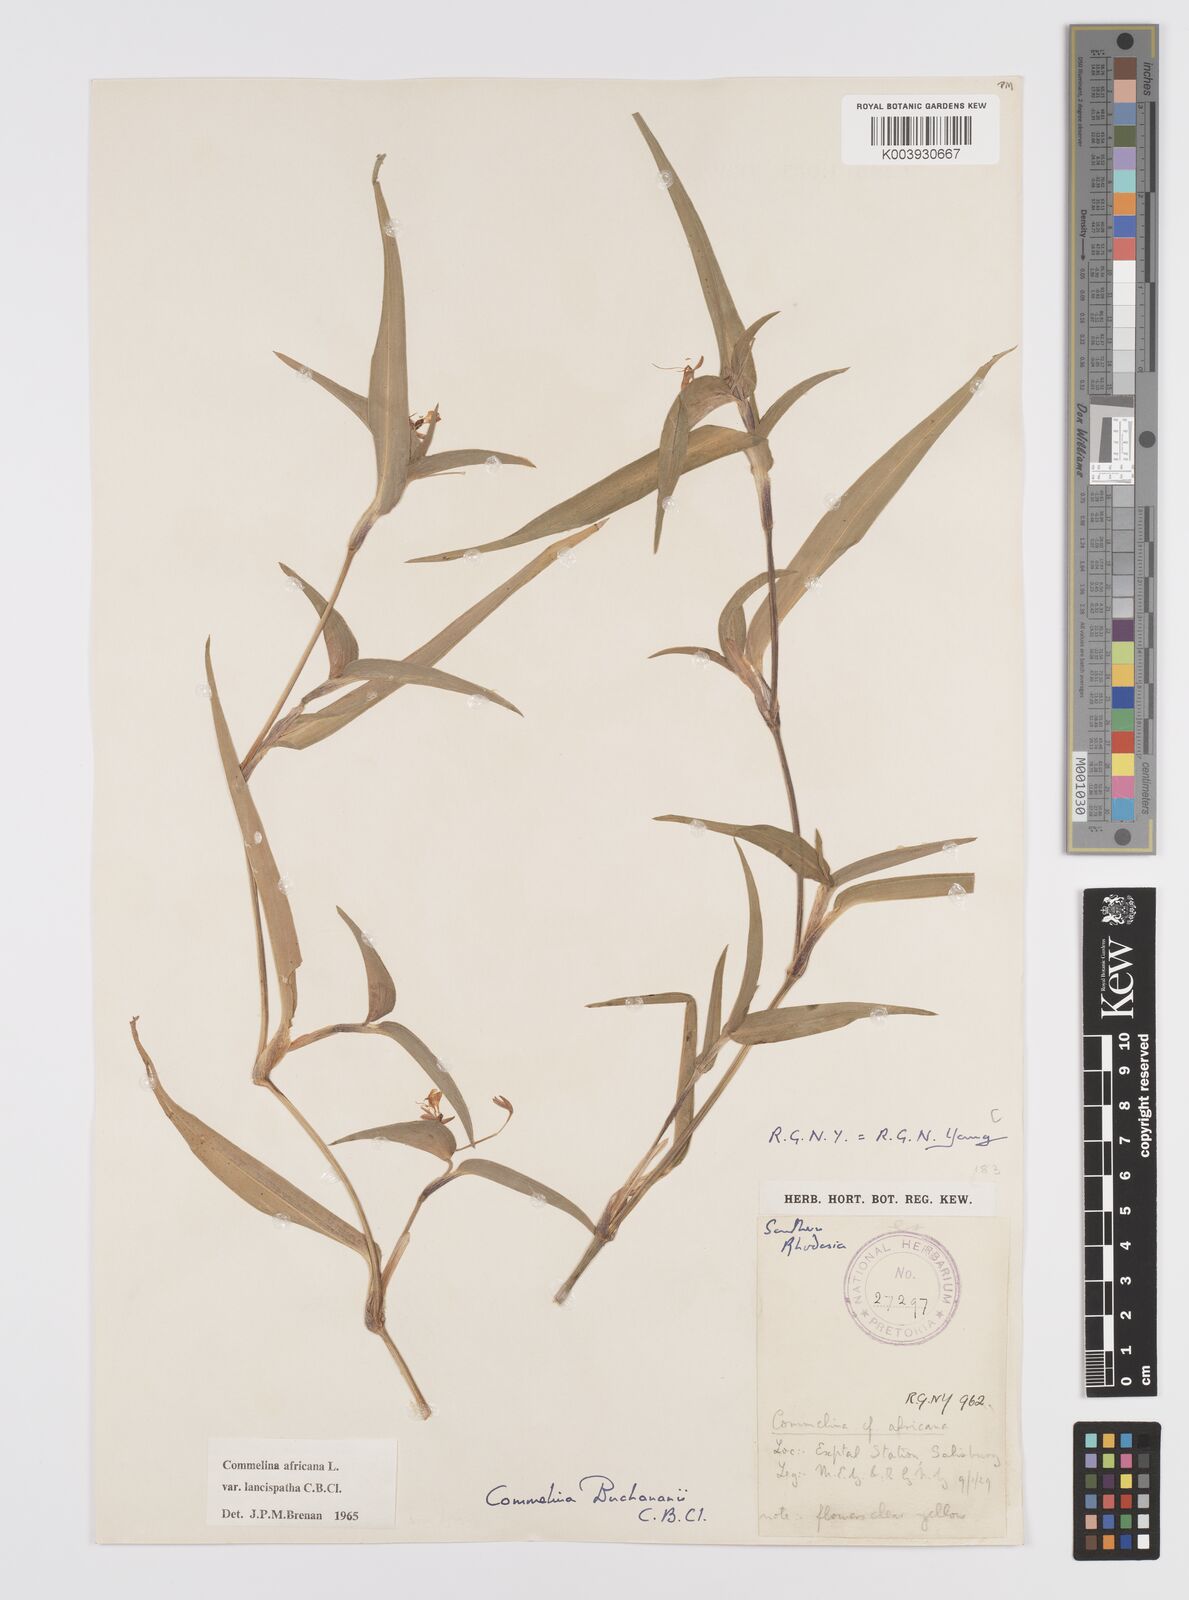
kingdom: Plantae
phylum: Tracheophyta
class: Liliopsida
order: Commelinales
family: Commelinaceae
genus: Commelina
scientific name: Commelina africana
